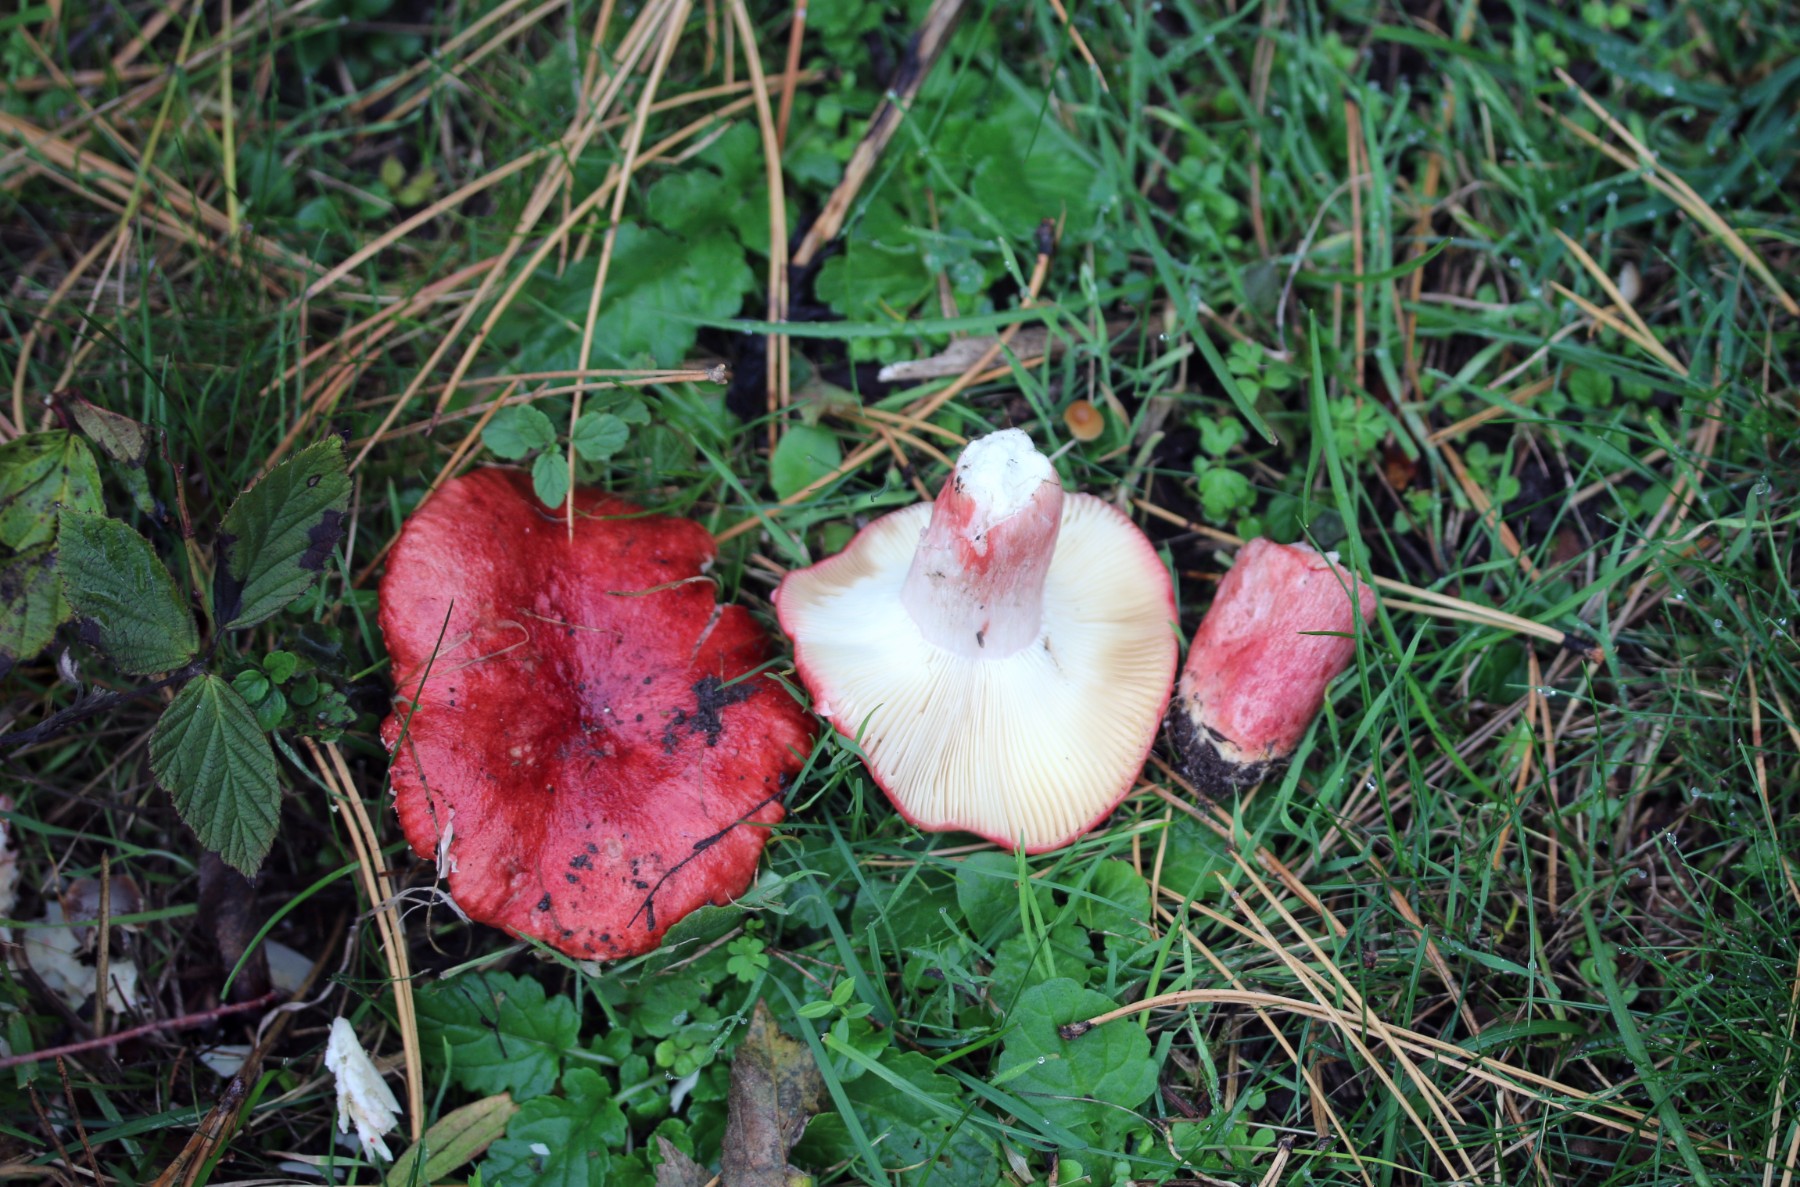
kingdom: Fungi
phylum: Basidiomycota
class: Agaricomycetes
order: Russulales
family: Russulaceae
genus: Russula
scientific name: Russula sanguinea
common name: blodrød skørhat
